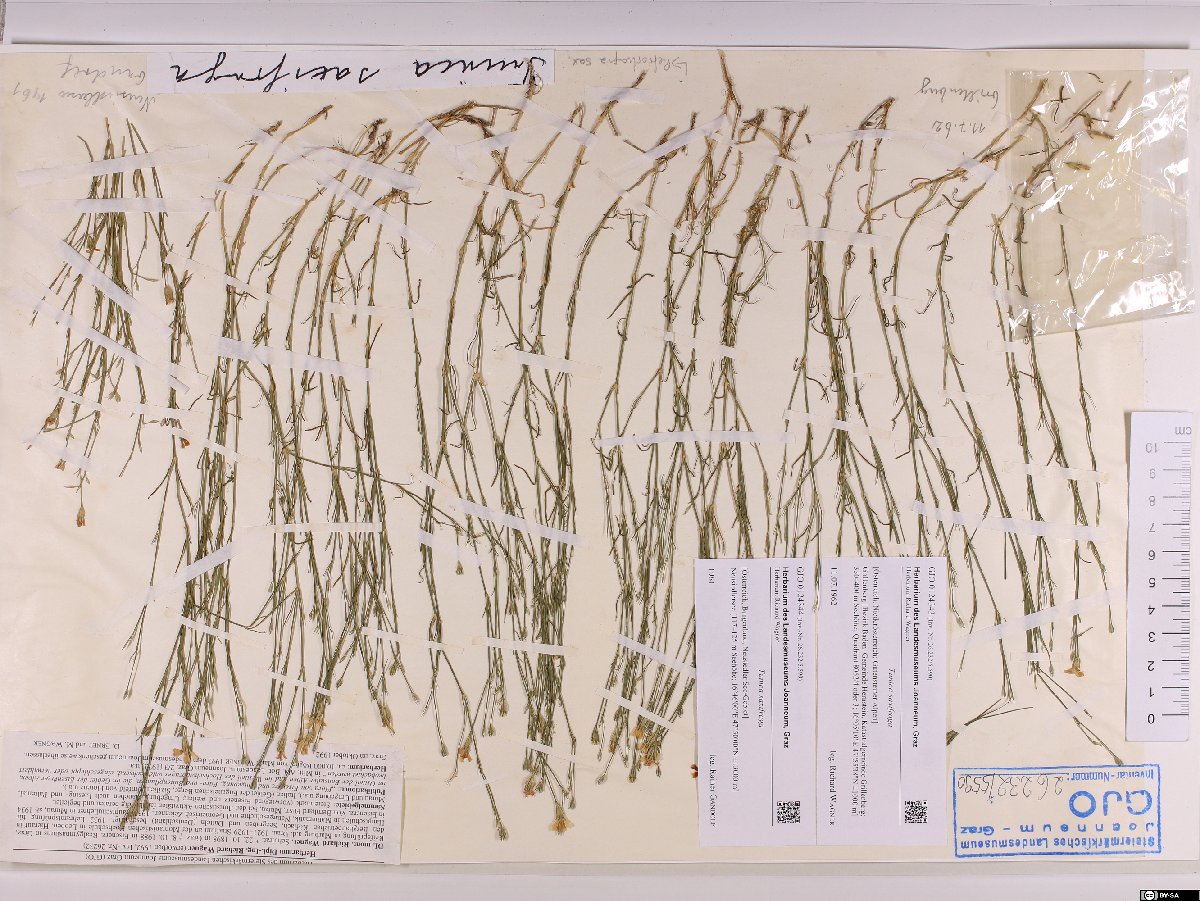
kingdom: Plantae
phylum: Tracheophyta
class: Magnoliopsida
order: Caryophyllales
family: Caryophyllaceae
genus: Petrorhagia
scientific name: Petrorhagia saxifraga
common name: Tunicflower
